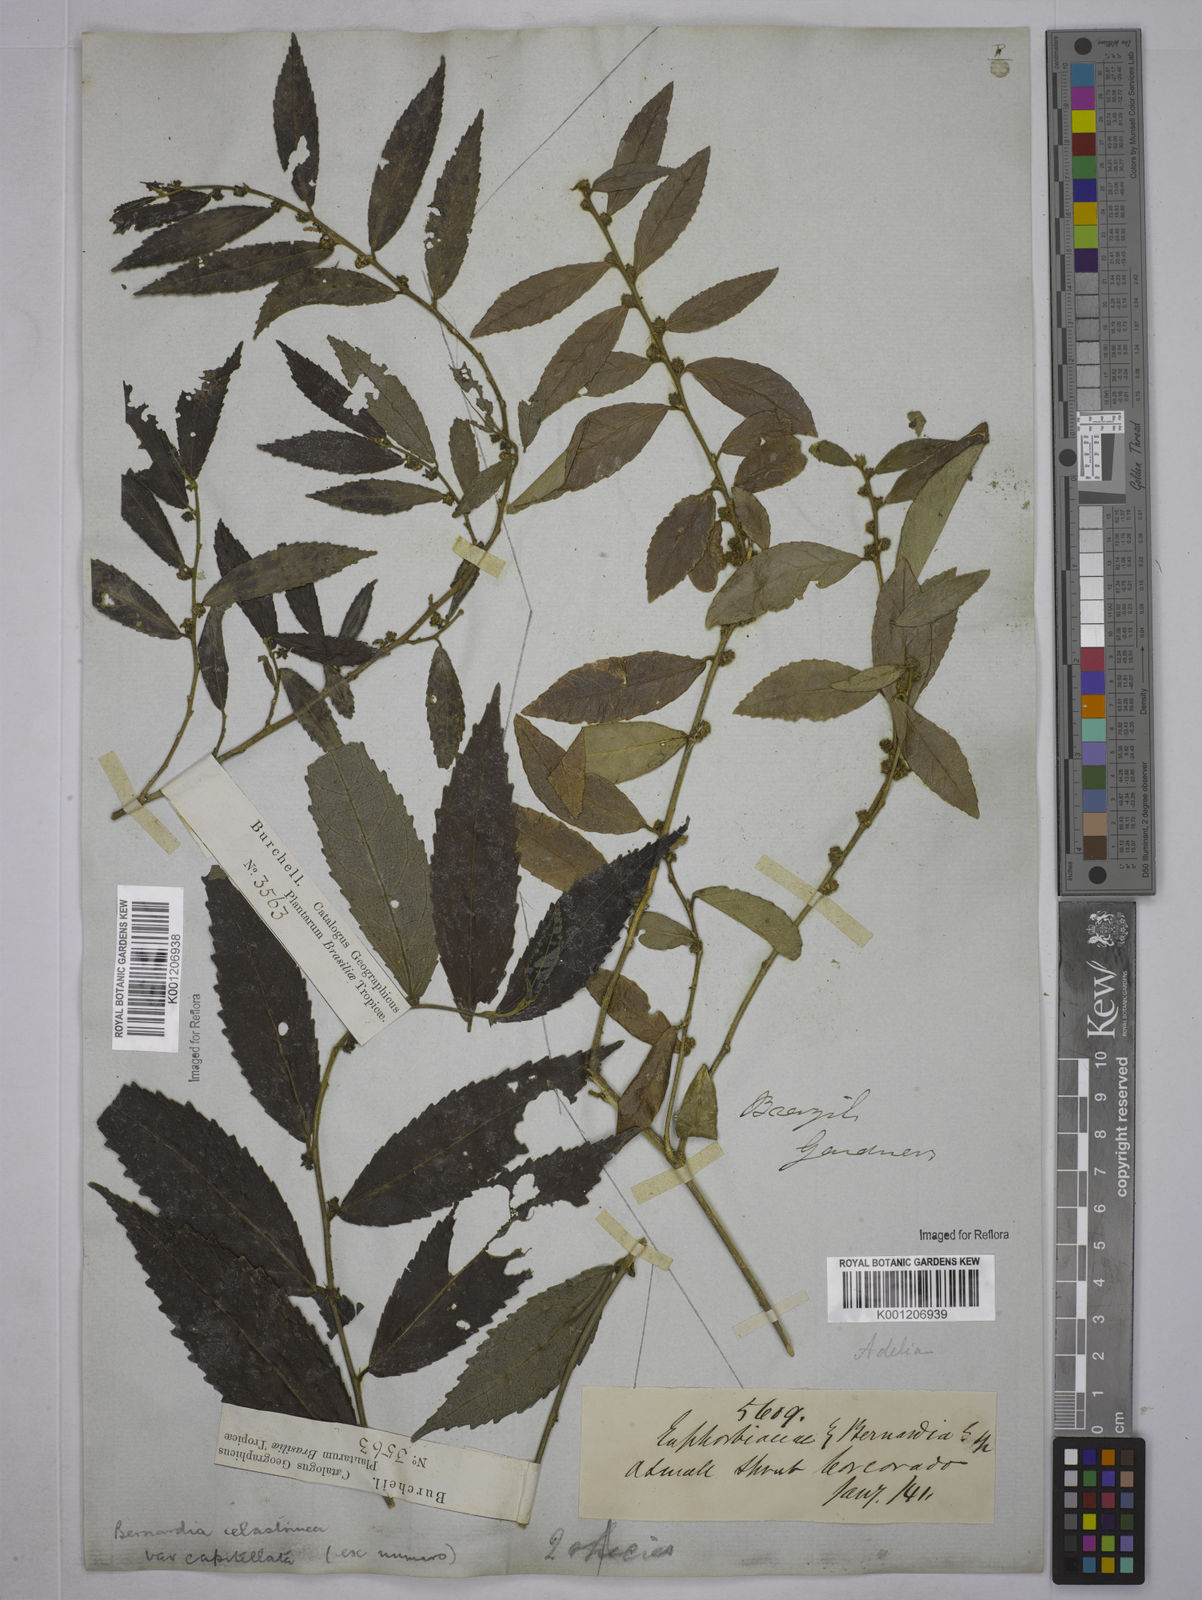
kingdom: Plantae
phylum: Tracheophyta
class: Magnoliopsida
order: Malpighiales
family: Euphorbiaceae
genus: Bernardia
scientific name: Bernardia celastrinea
